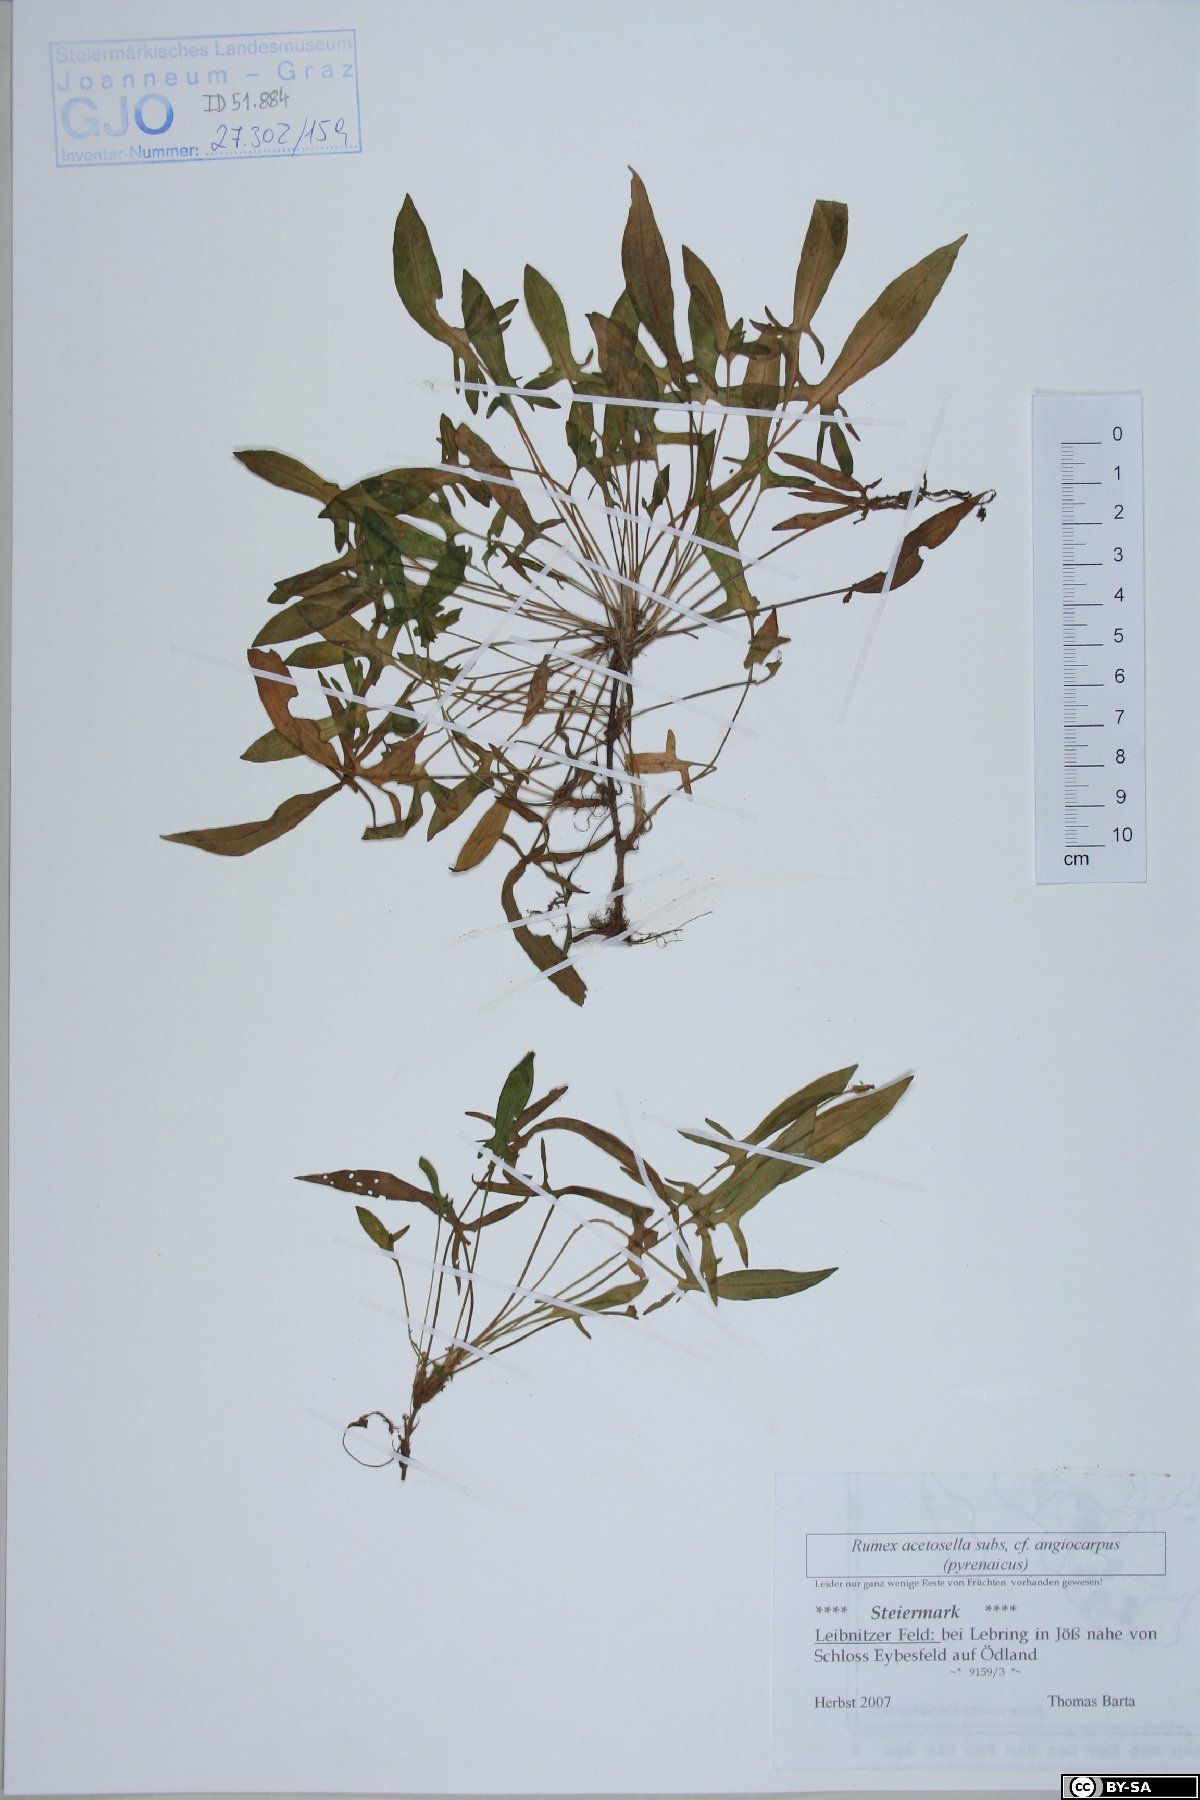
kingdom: Plantae
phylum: Tracheophyta
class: Magnoliopsida
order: Caryophyllales
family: Polygonaceae
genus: Rumex
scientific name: Rumex acetosella
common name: Common sheep sorrel
